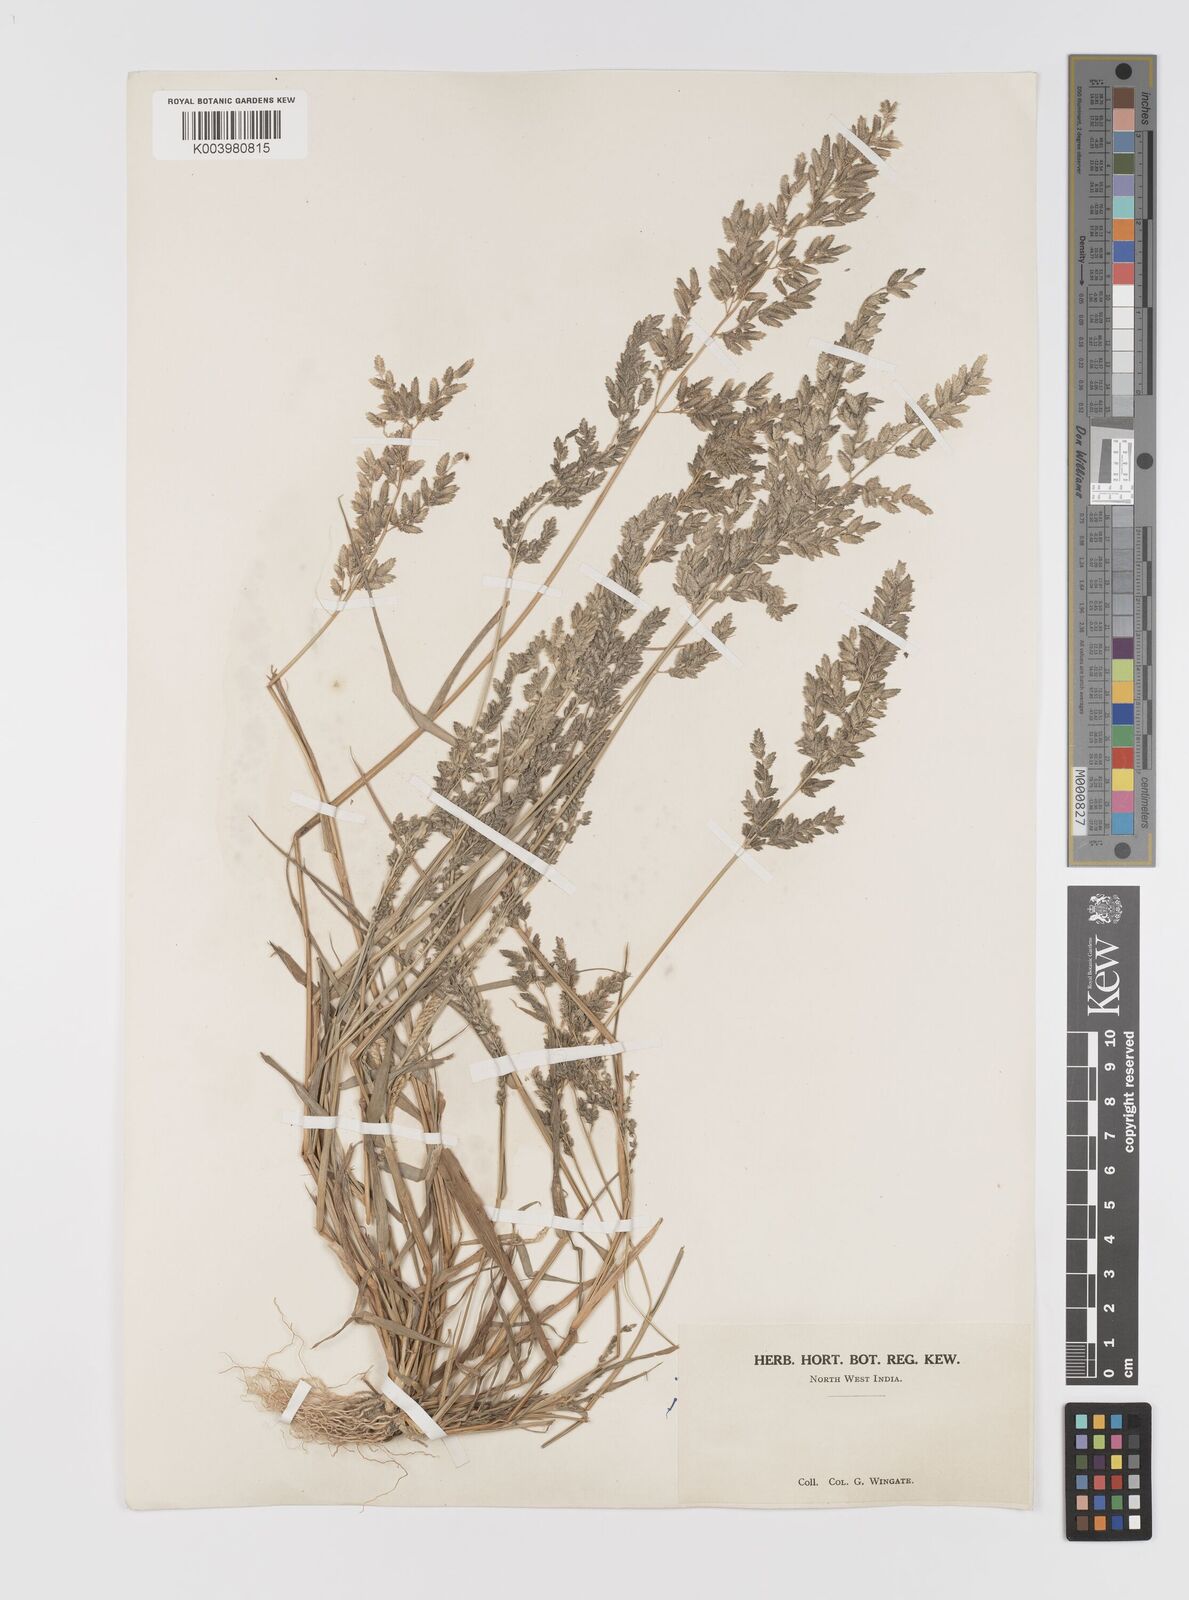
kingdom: Plantae
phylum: Tracheophyta
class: Liliopsida
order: Poales
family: Poaceae
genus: Eragrostis
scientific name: Eragrostis cilianensis
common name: Stinkgrass
